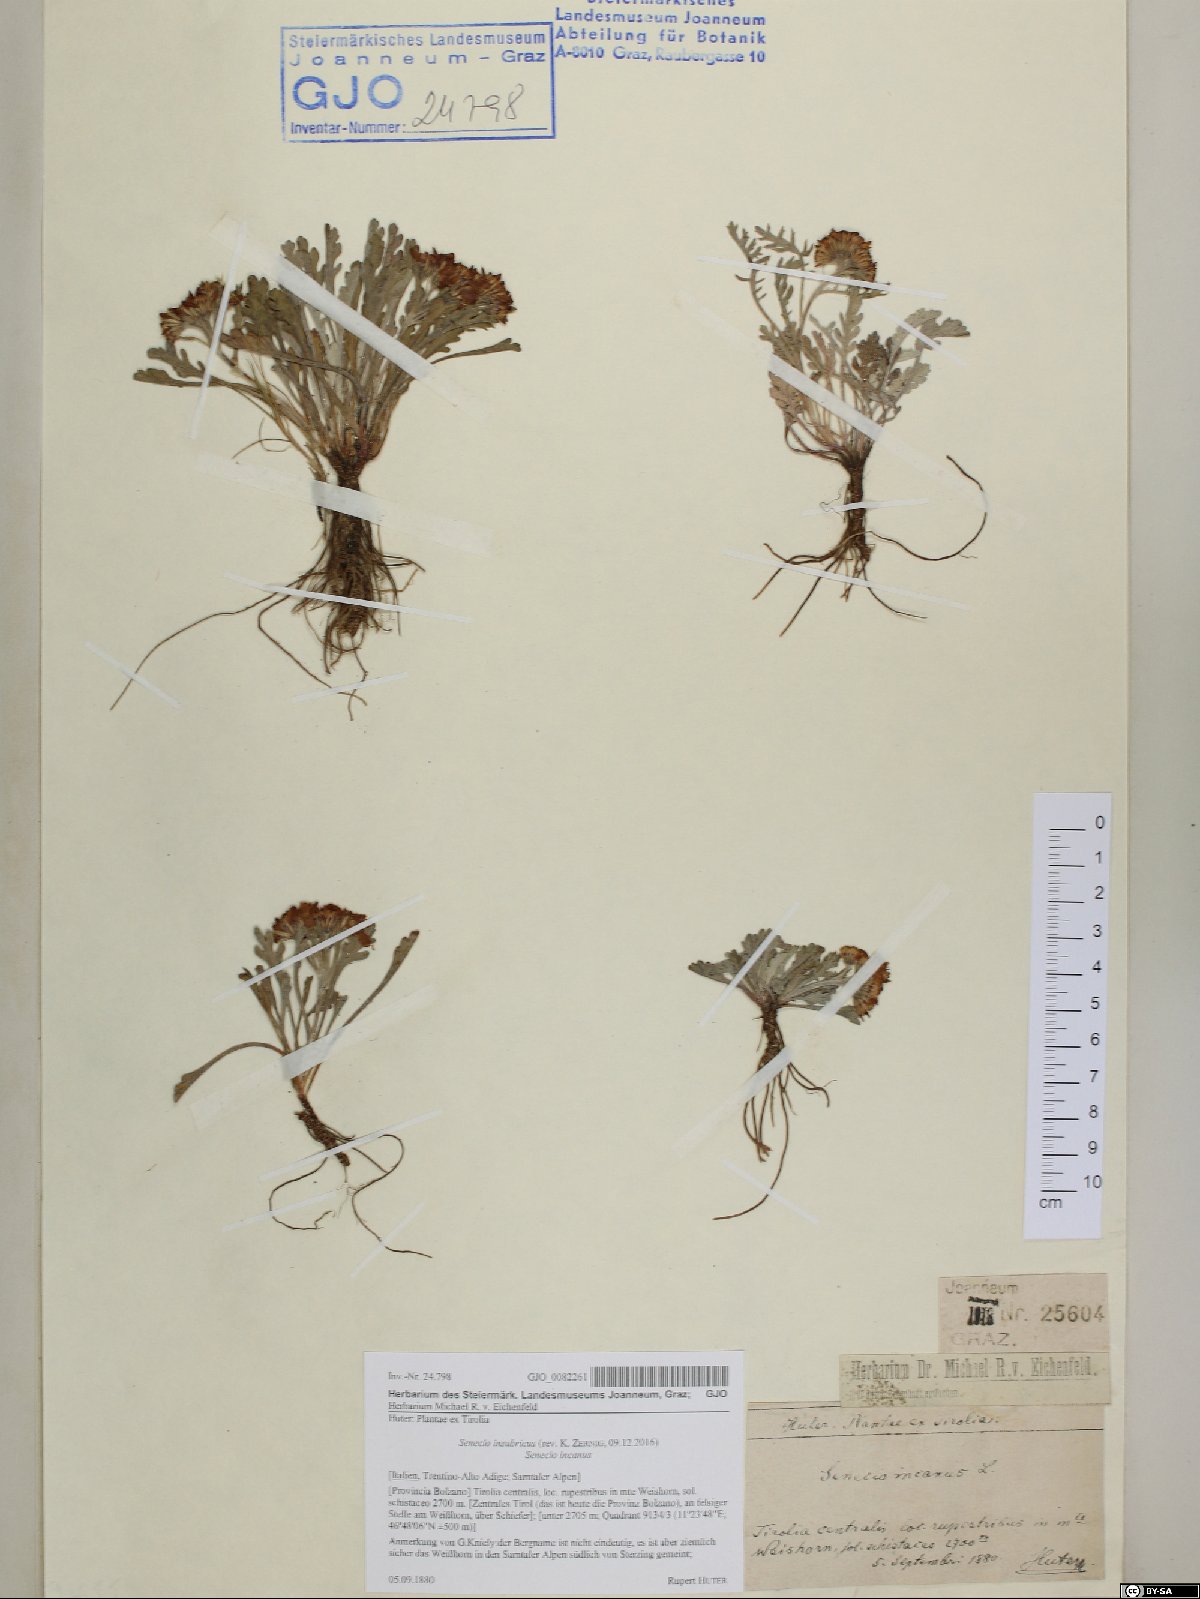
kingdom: Plantae
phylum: Tracheophyta
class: Magnoliopsida
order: Asterales
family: Asteraceae
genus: Jacobaea
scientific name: Jacobaea insubrica
